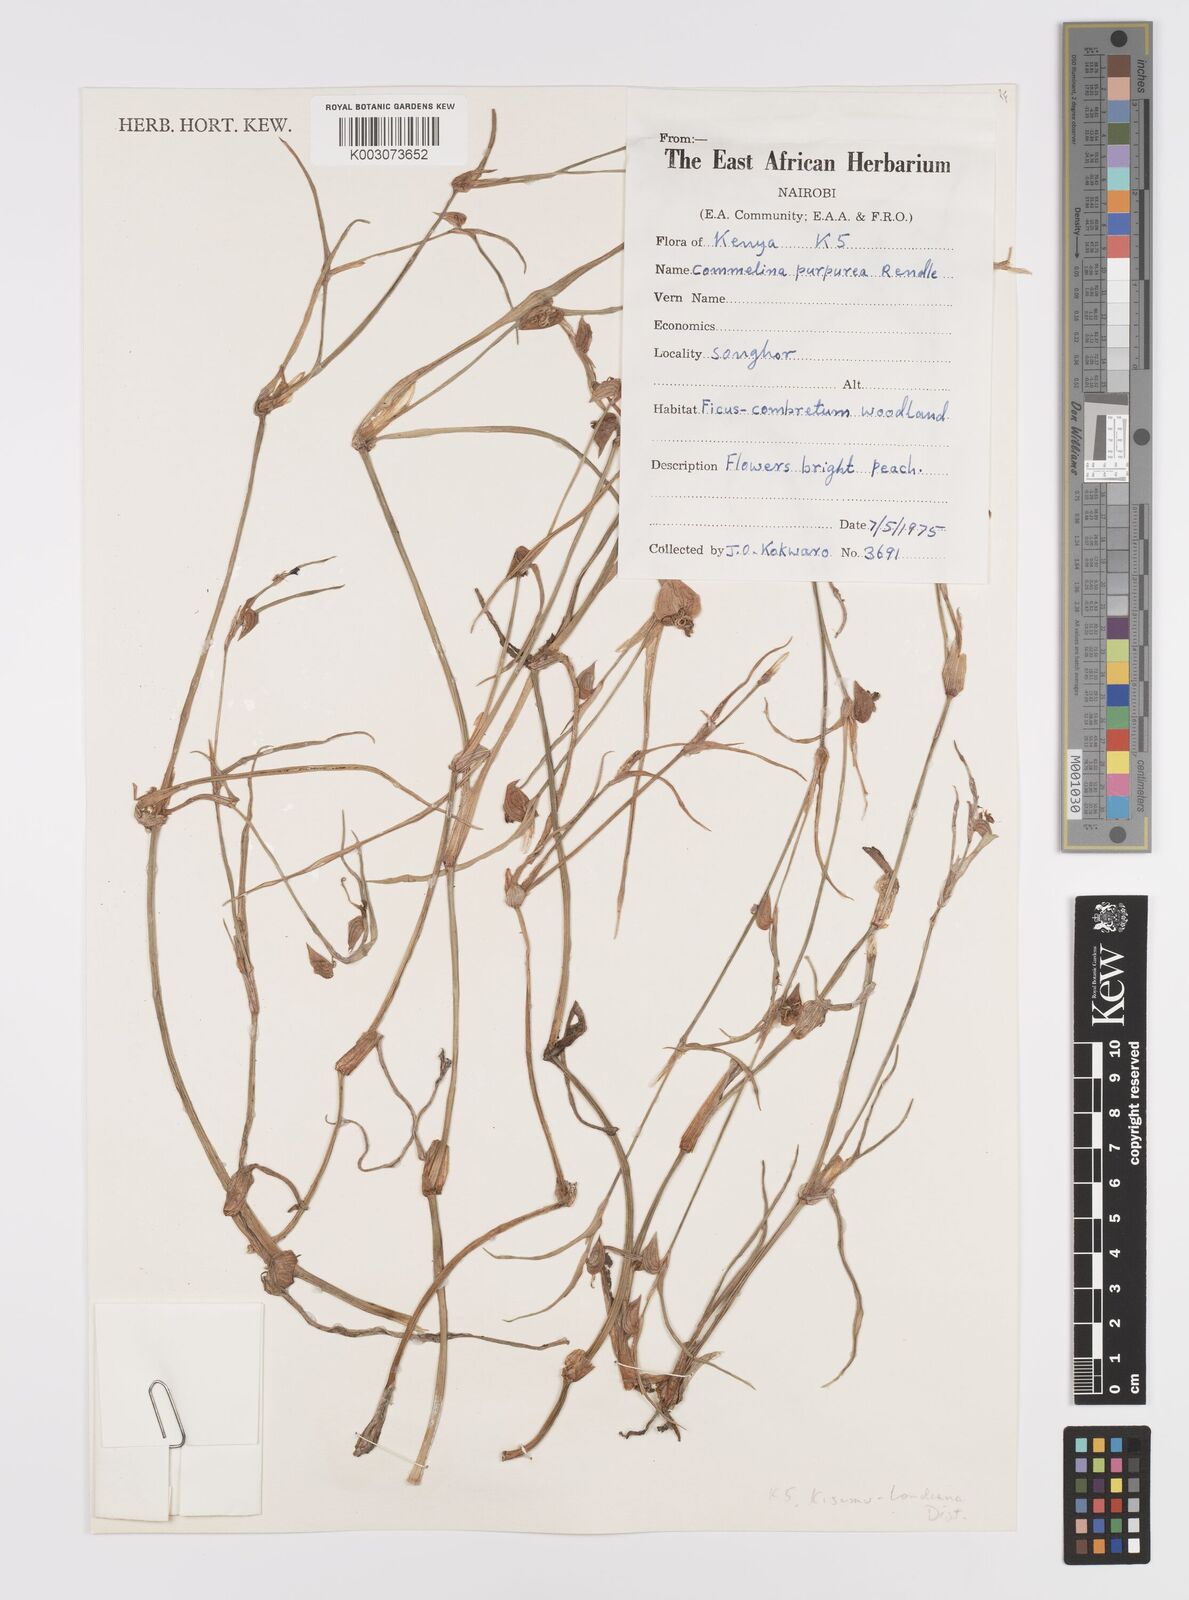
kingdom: Plantae
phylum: Tracheophyta
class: Liliopsida
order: Commelinales
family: Commelinaceae
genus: Commelina
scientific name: Commelina purpurea
